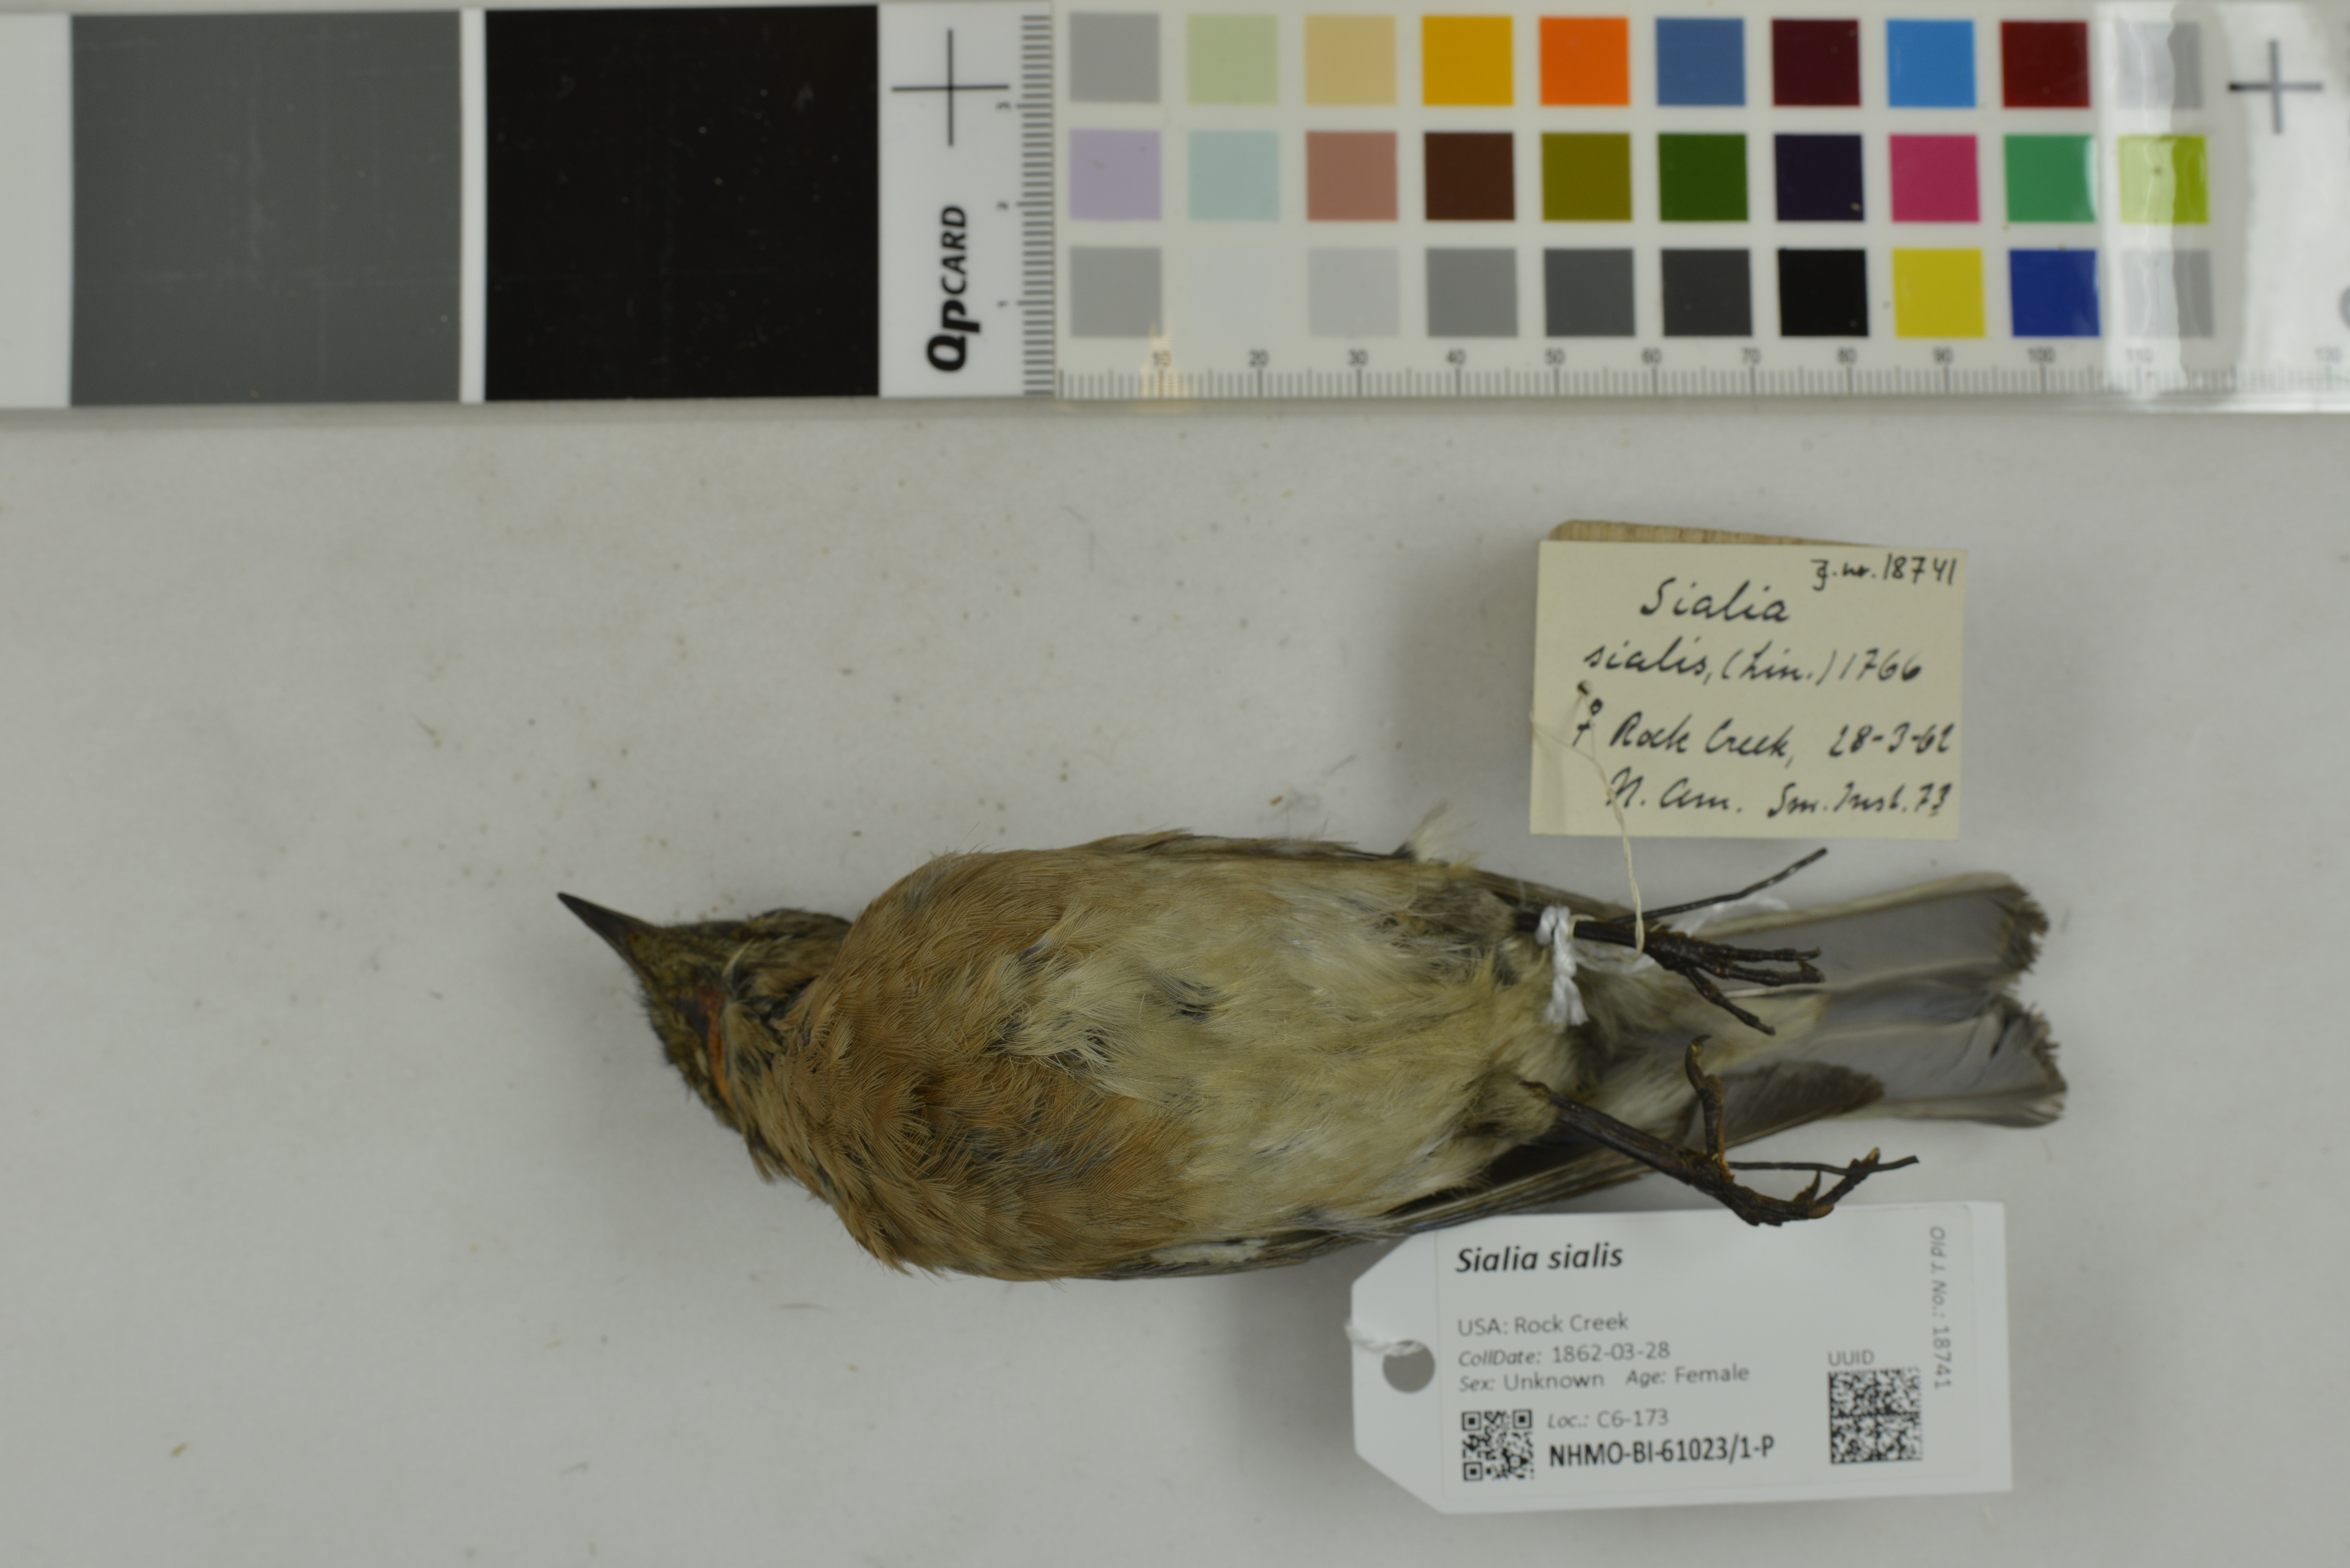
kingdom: Animalia
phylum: Chordata
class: Aves
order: Passeriformes
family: Turdidae
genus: Sialia
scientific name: Sialia sialis
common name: Eastern bluebird
